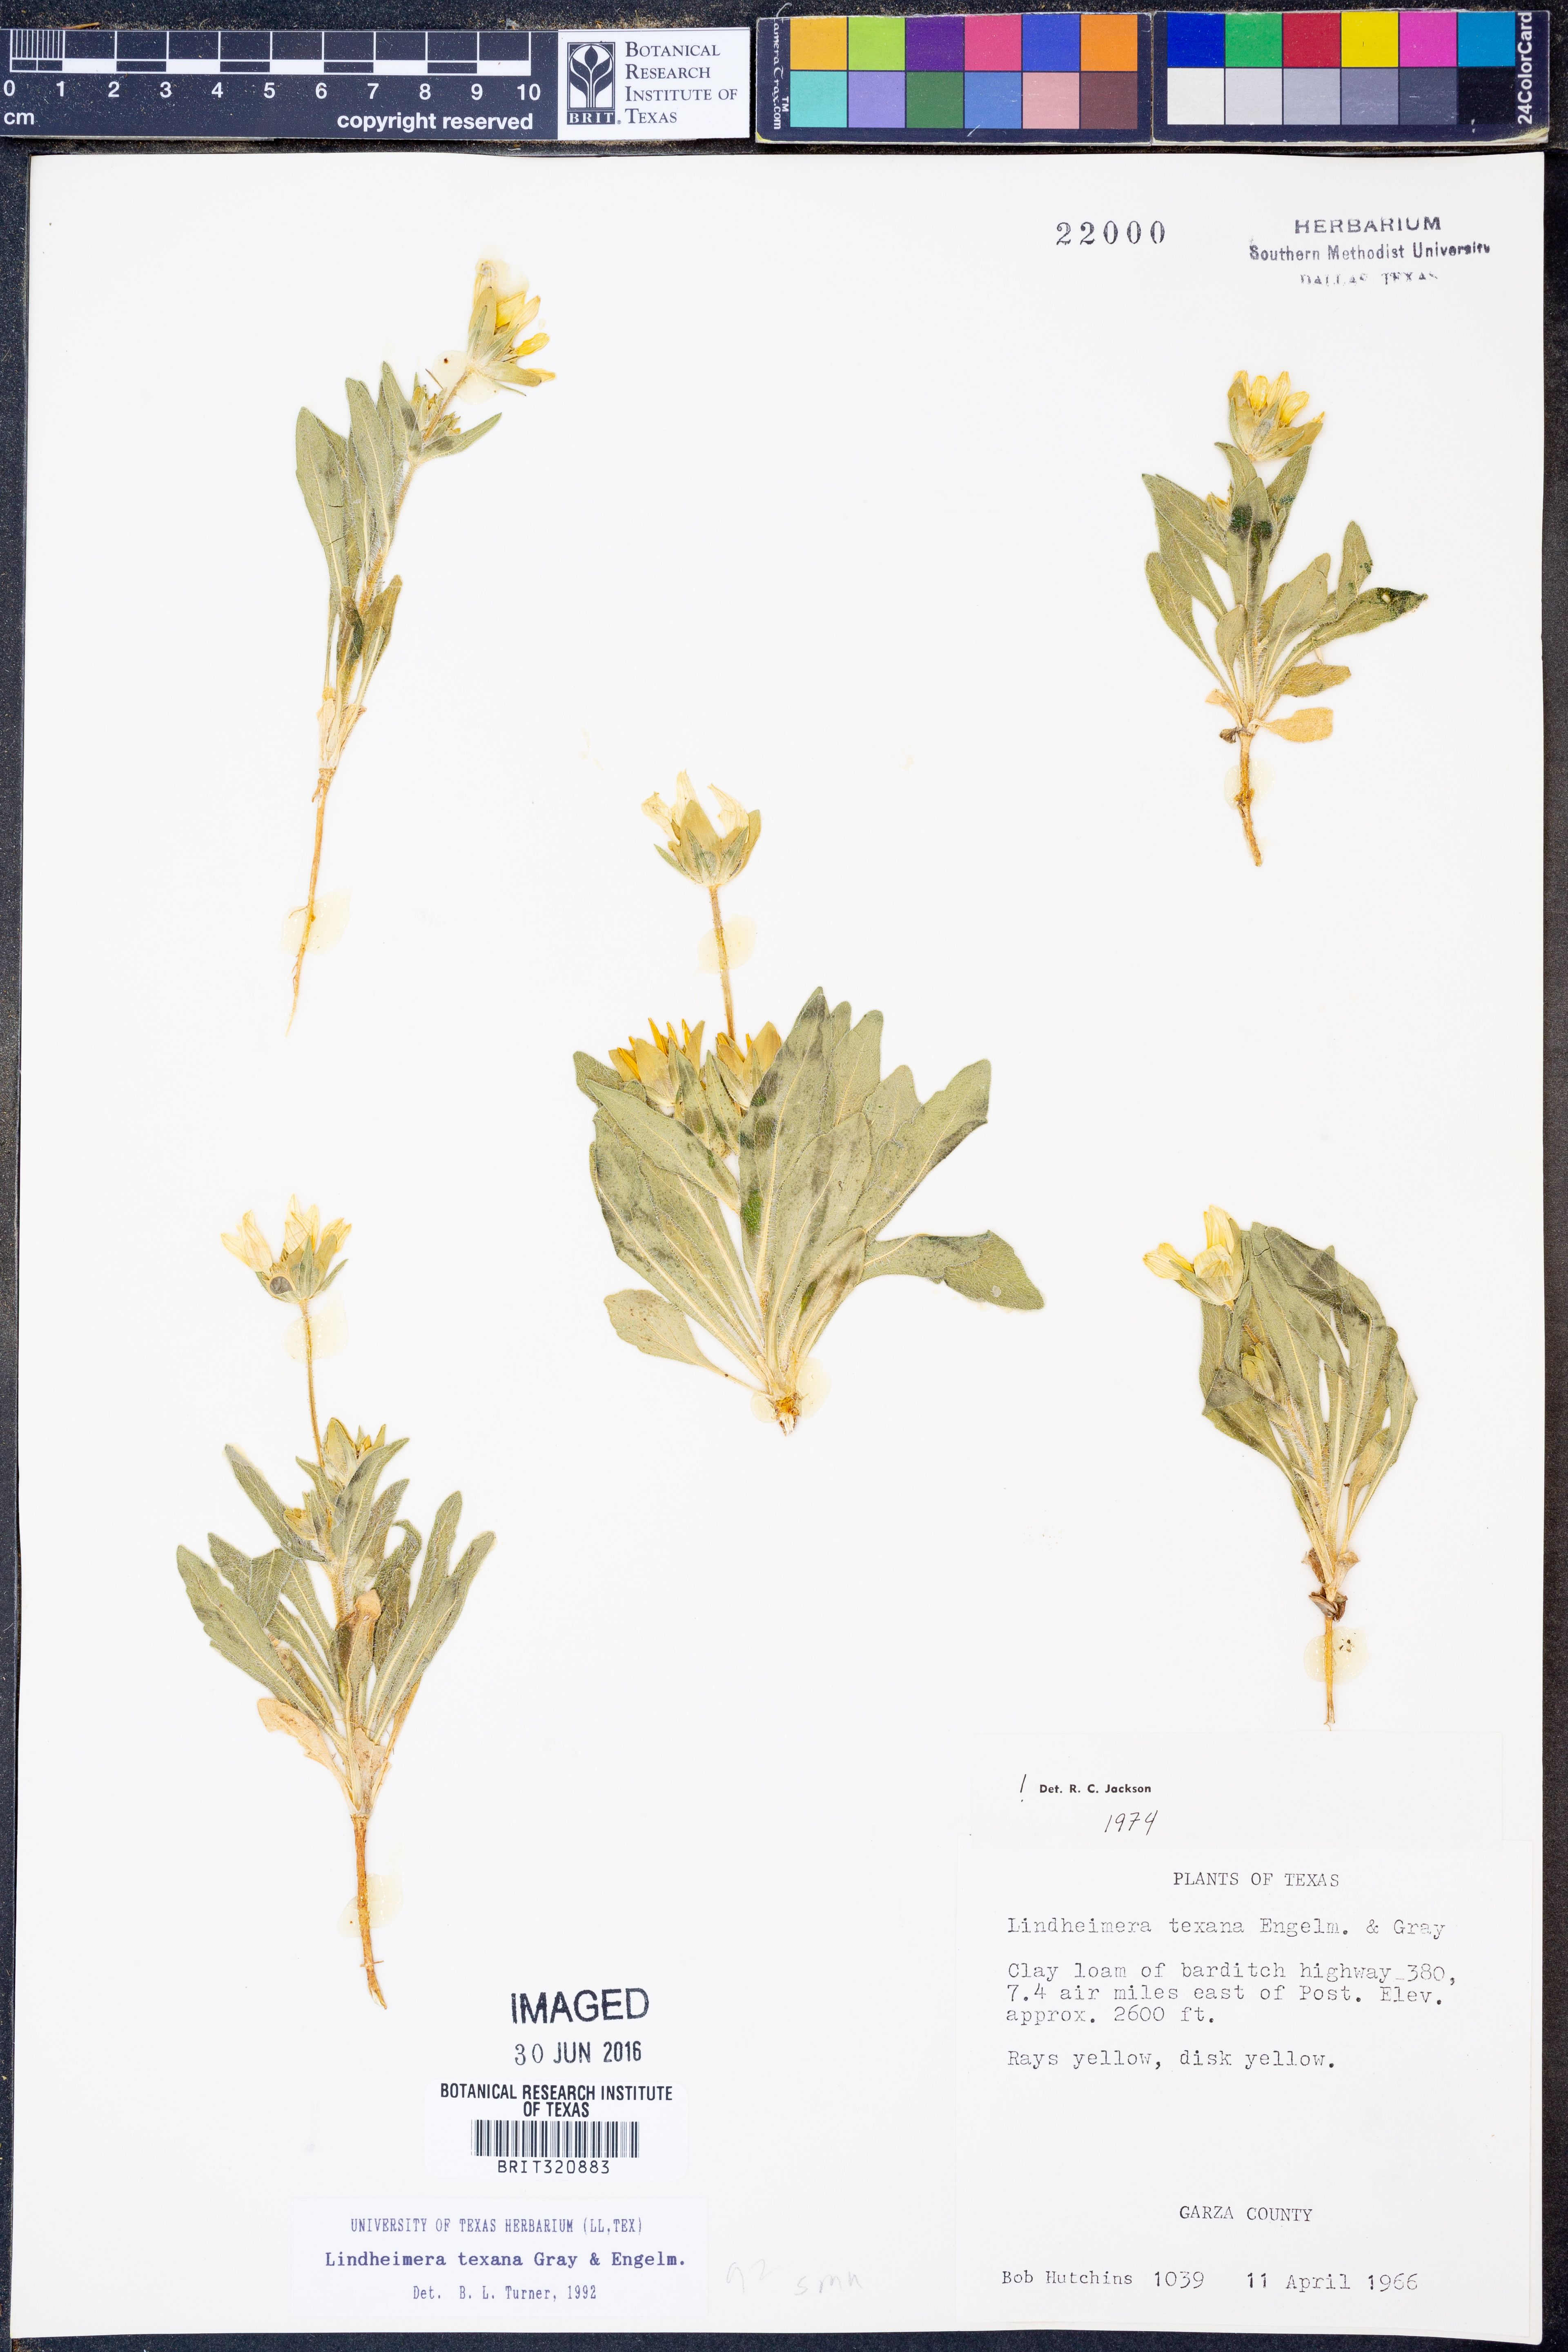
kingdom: Plantae
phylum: Tracheophyta
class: Magnoliopsida
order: Asterales
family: Asteraceae
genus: Lindheimera
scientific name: Lindheimera texana
